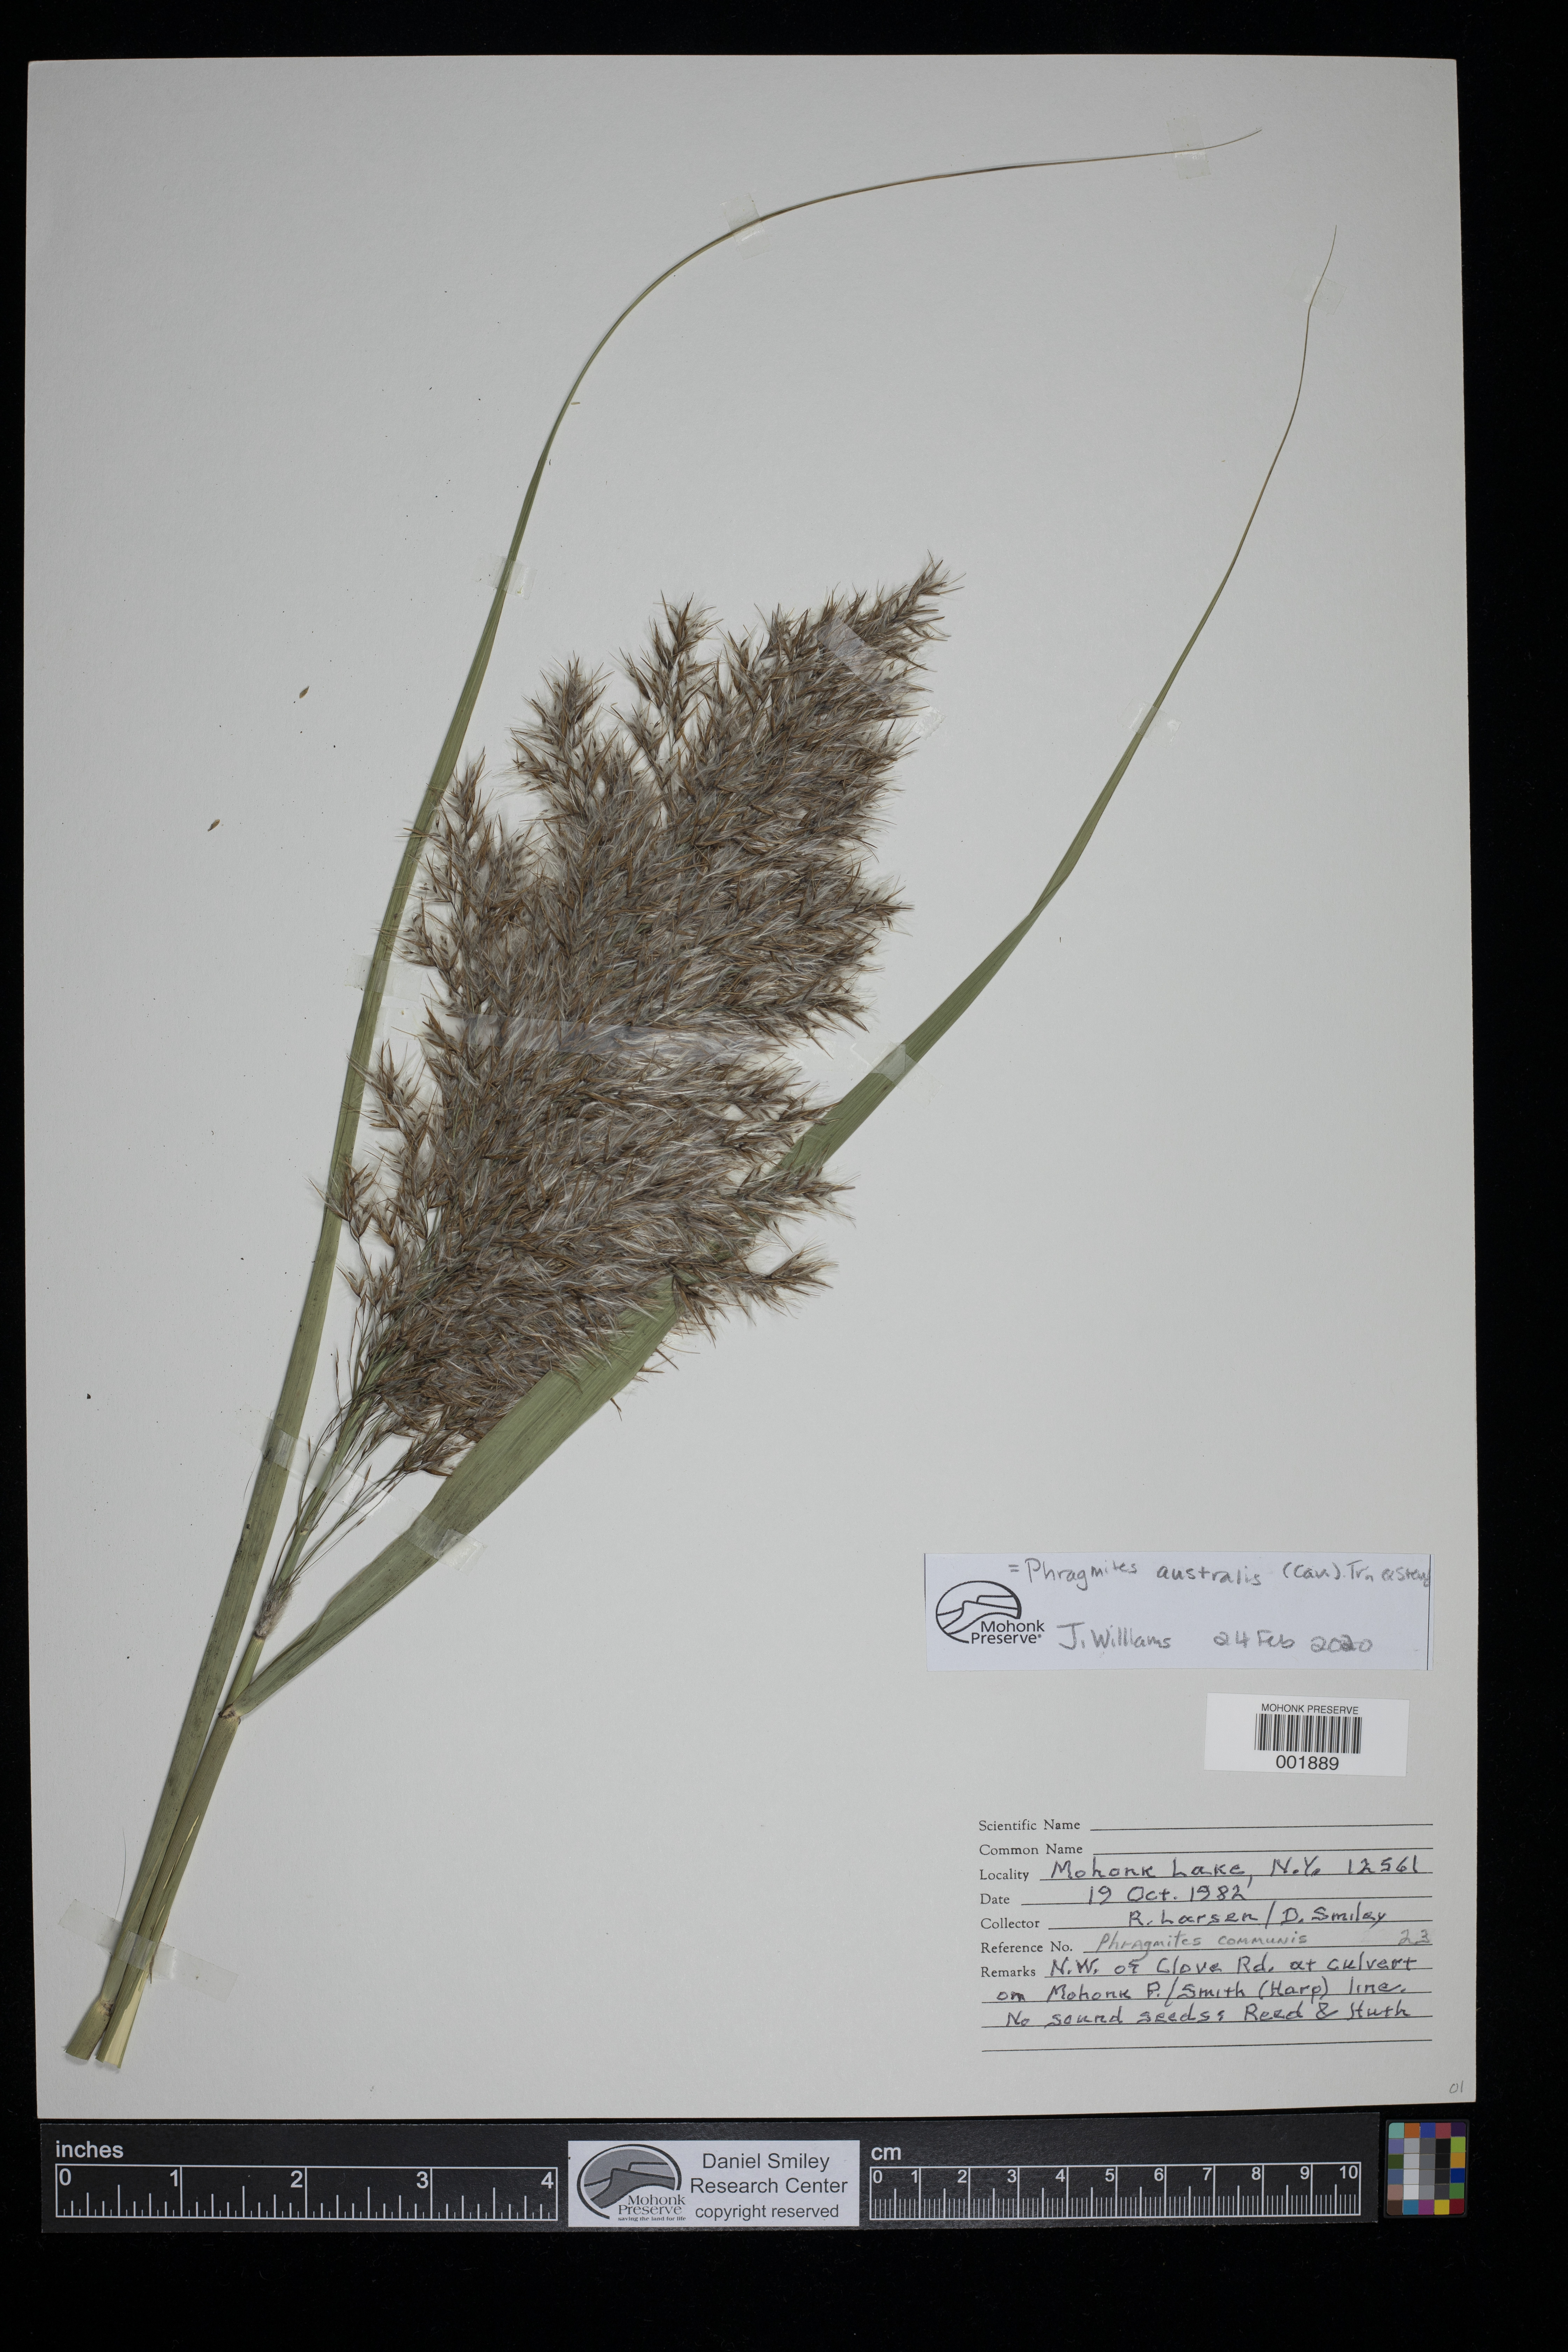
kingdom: Plantae
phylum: Tracheophyta
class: Liliopsida
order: Poales
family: Poaceae
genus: Phragmites
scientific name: Phragmites australis
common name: Common reed
